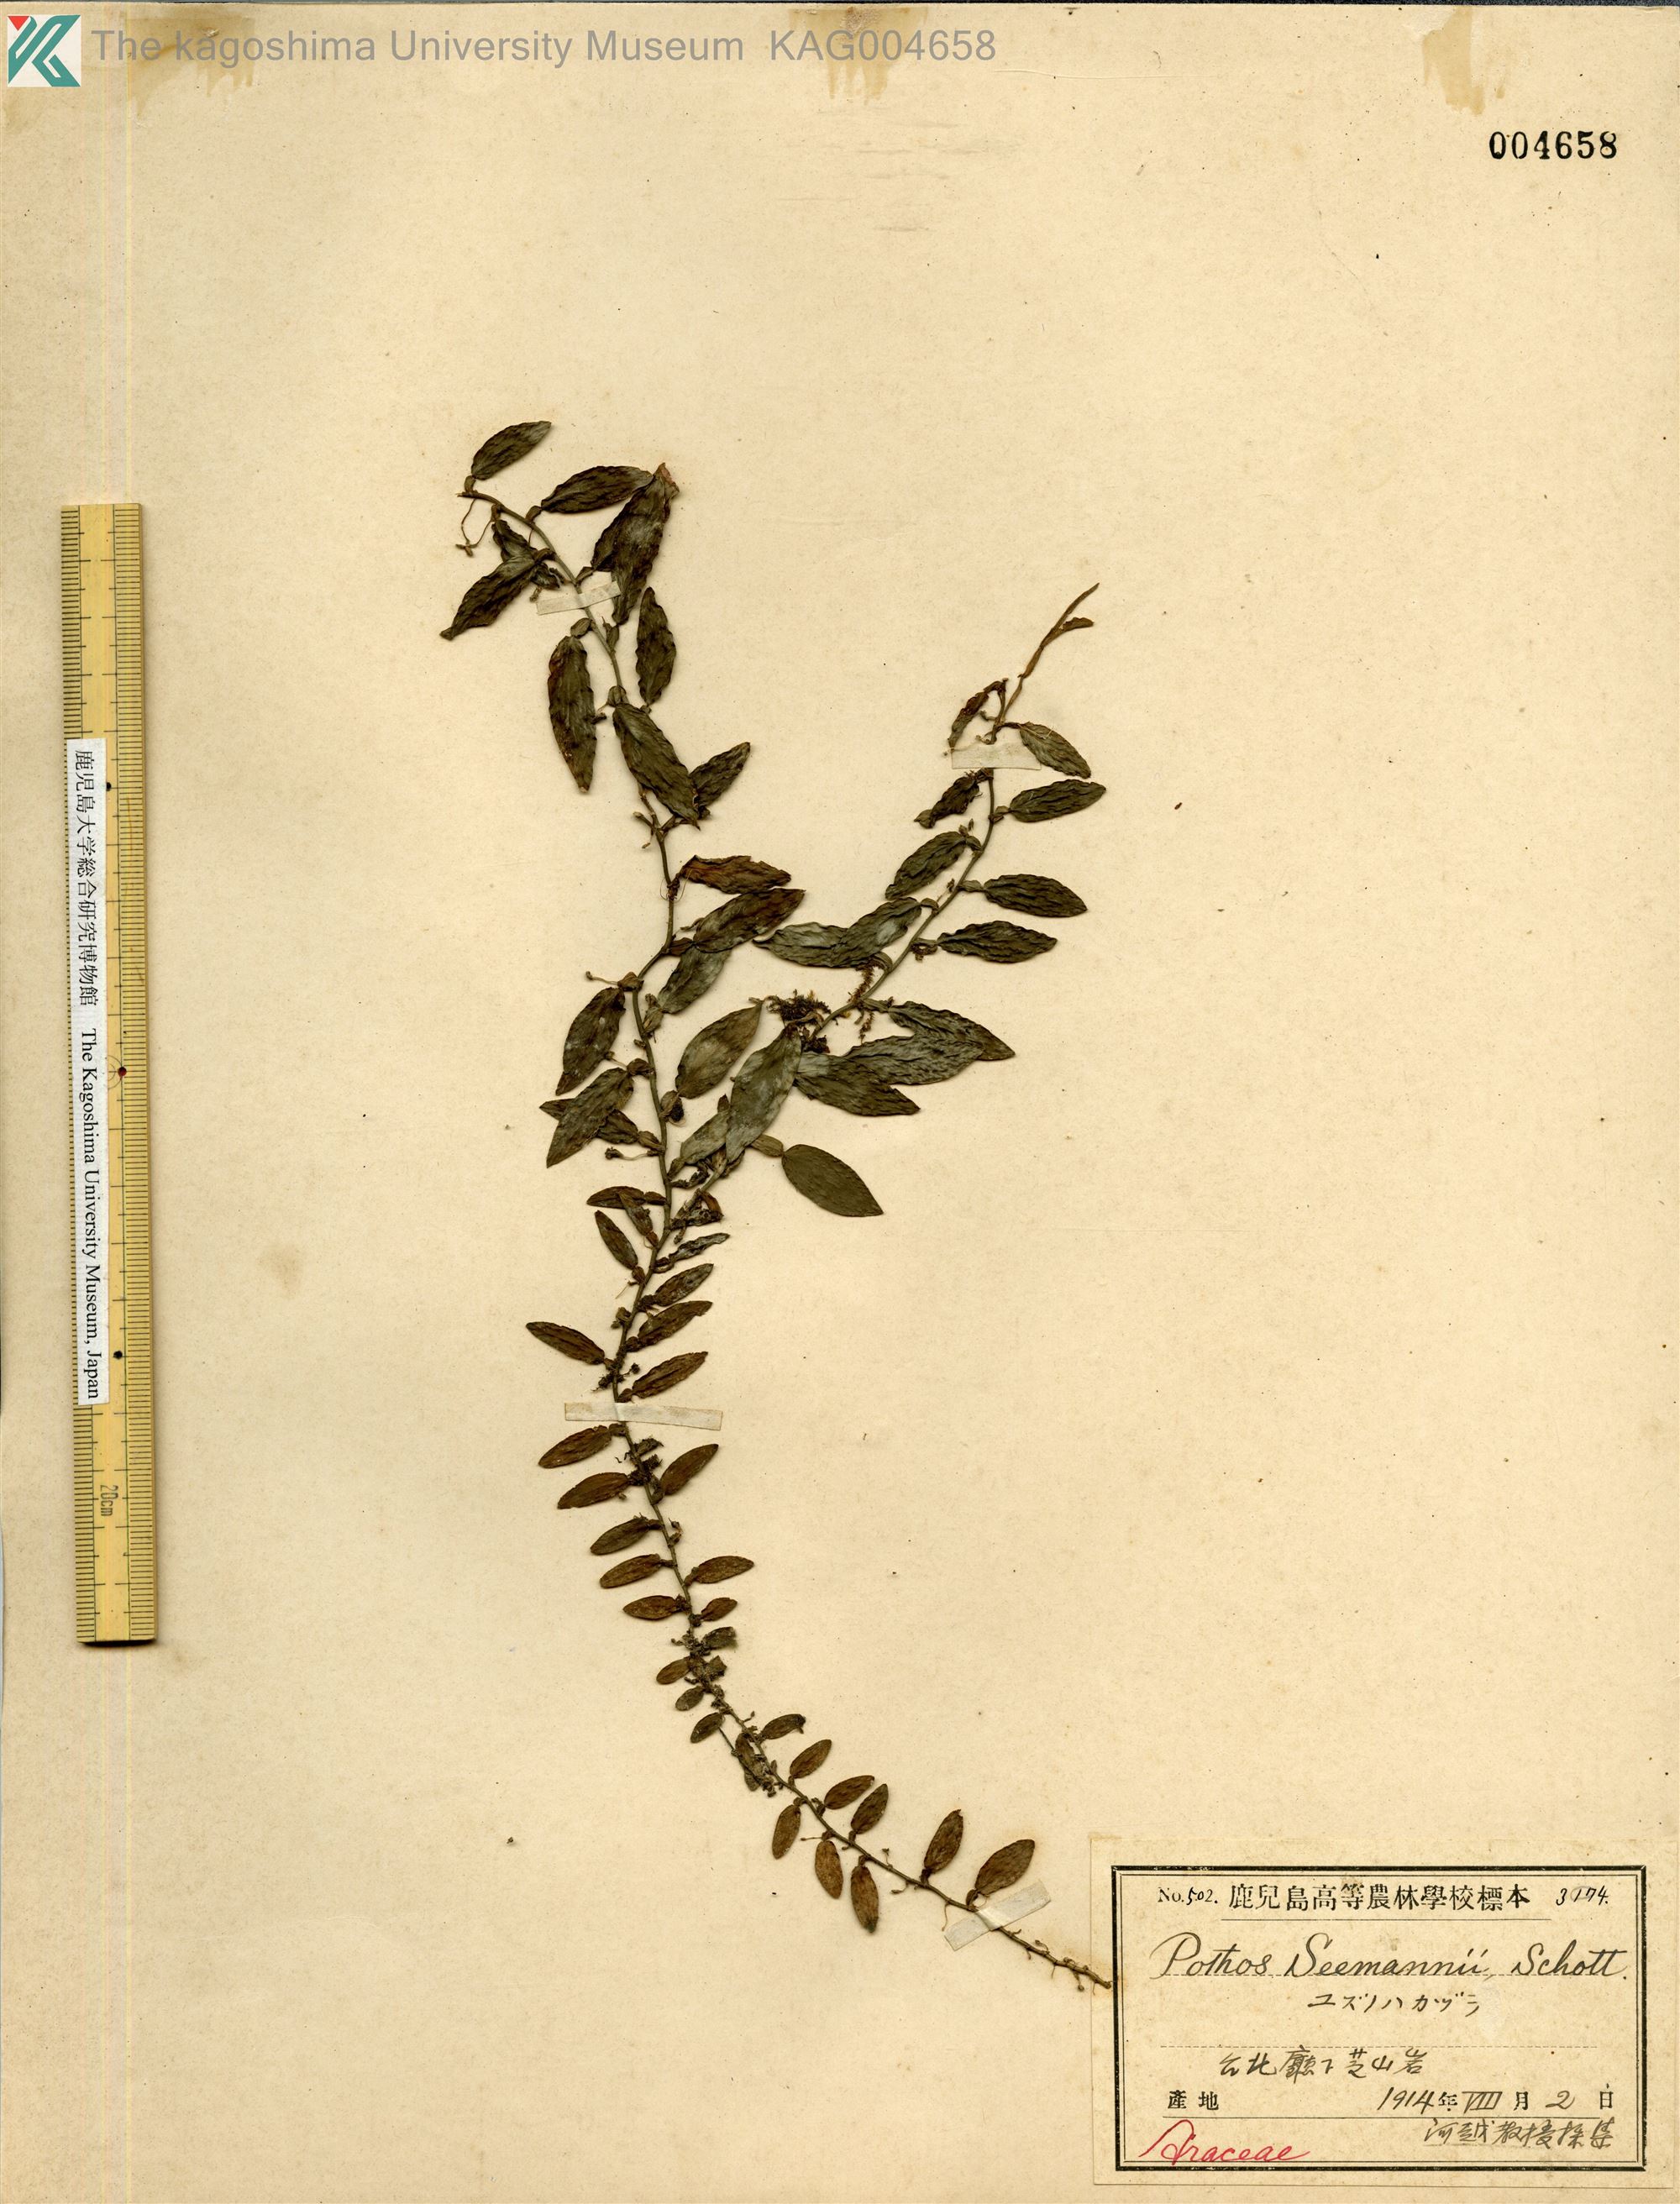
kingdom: Plantae
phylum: Tracheophyta
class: Liliopsida
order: Alismatales
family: Araceae
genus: Pothos
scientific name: Pothos chinensis
